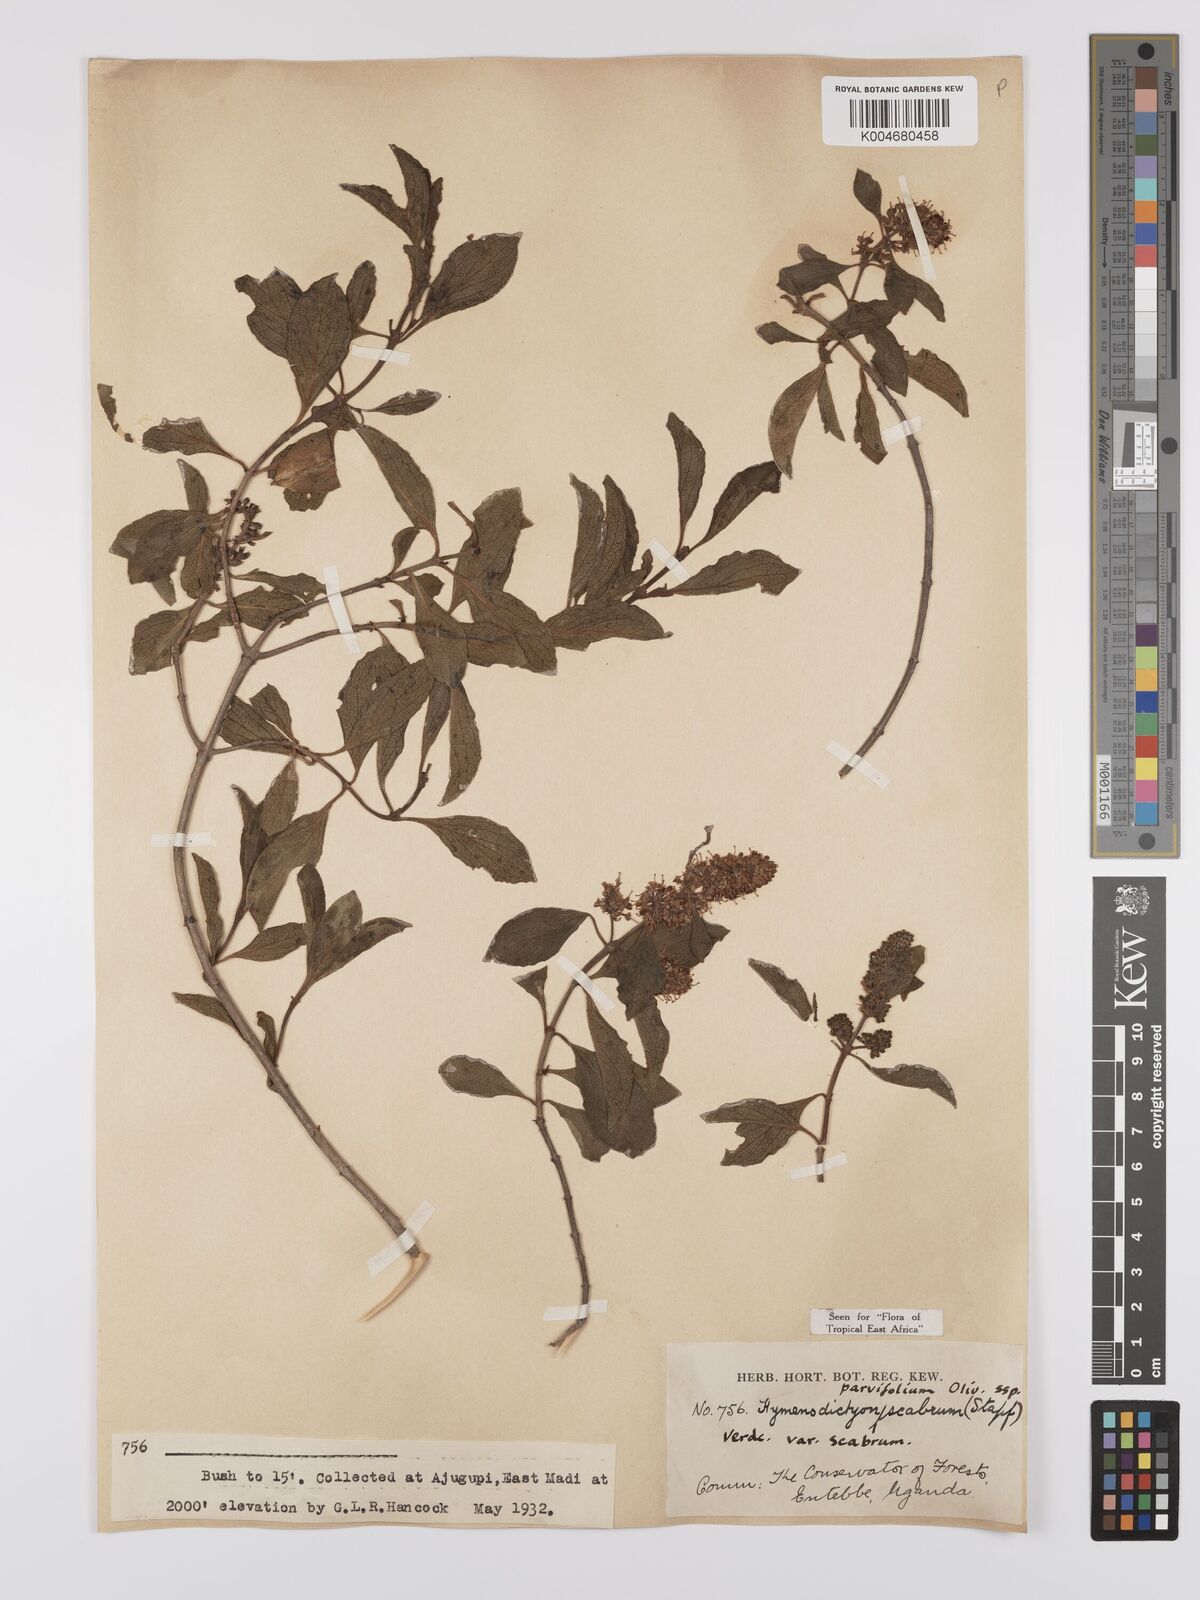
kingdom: Plantae
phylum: Tracheophyta
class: Magnoliopsida
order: Gentianales
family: Rubiaceae
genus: Hymenodictyon
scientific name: Hymenodictyon scabrum
